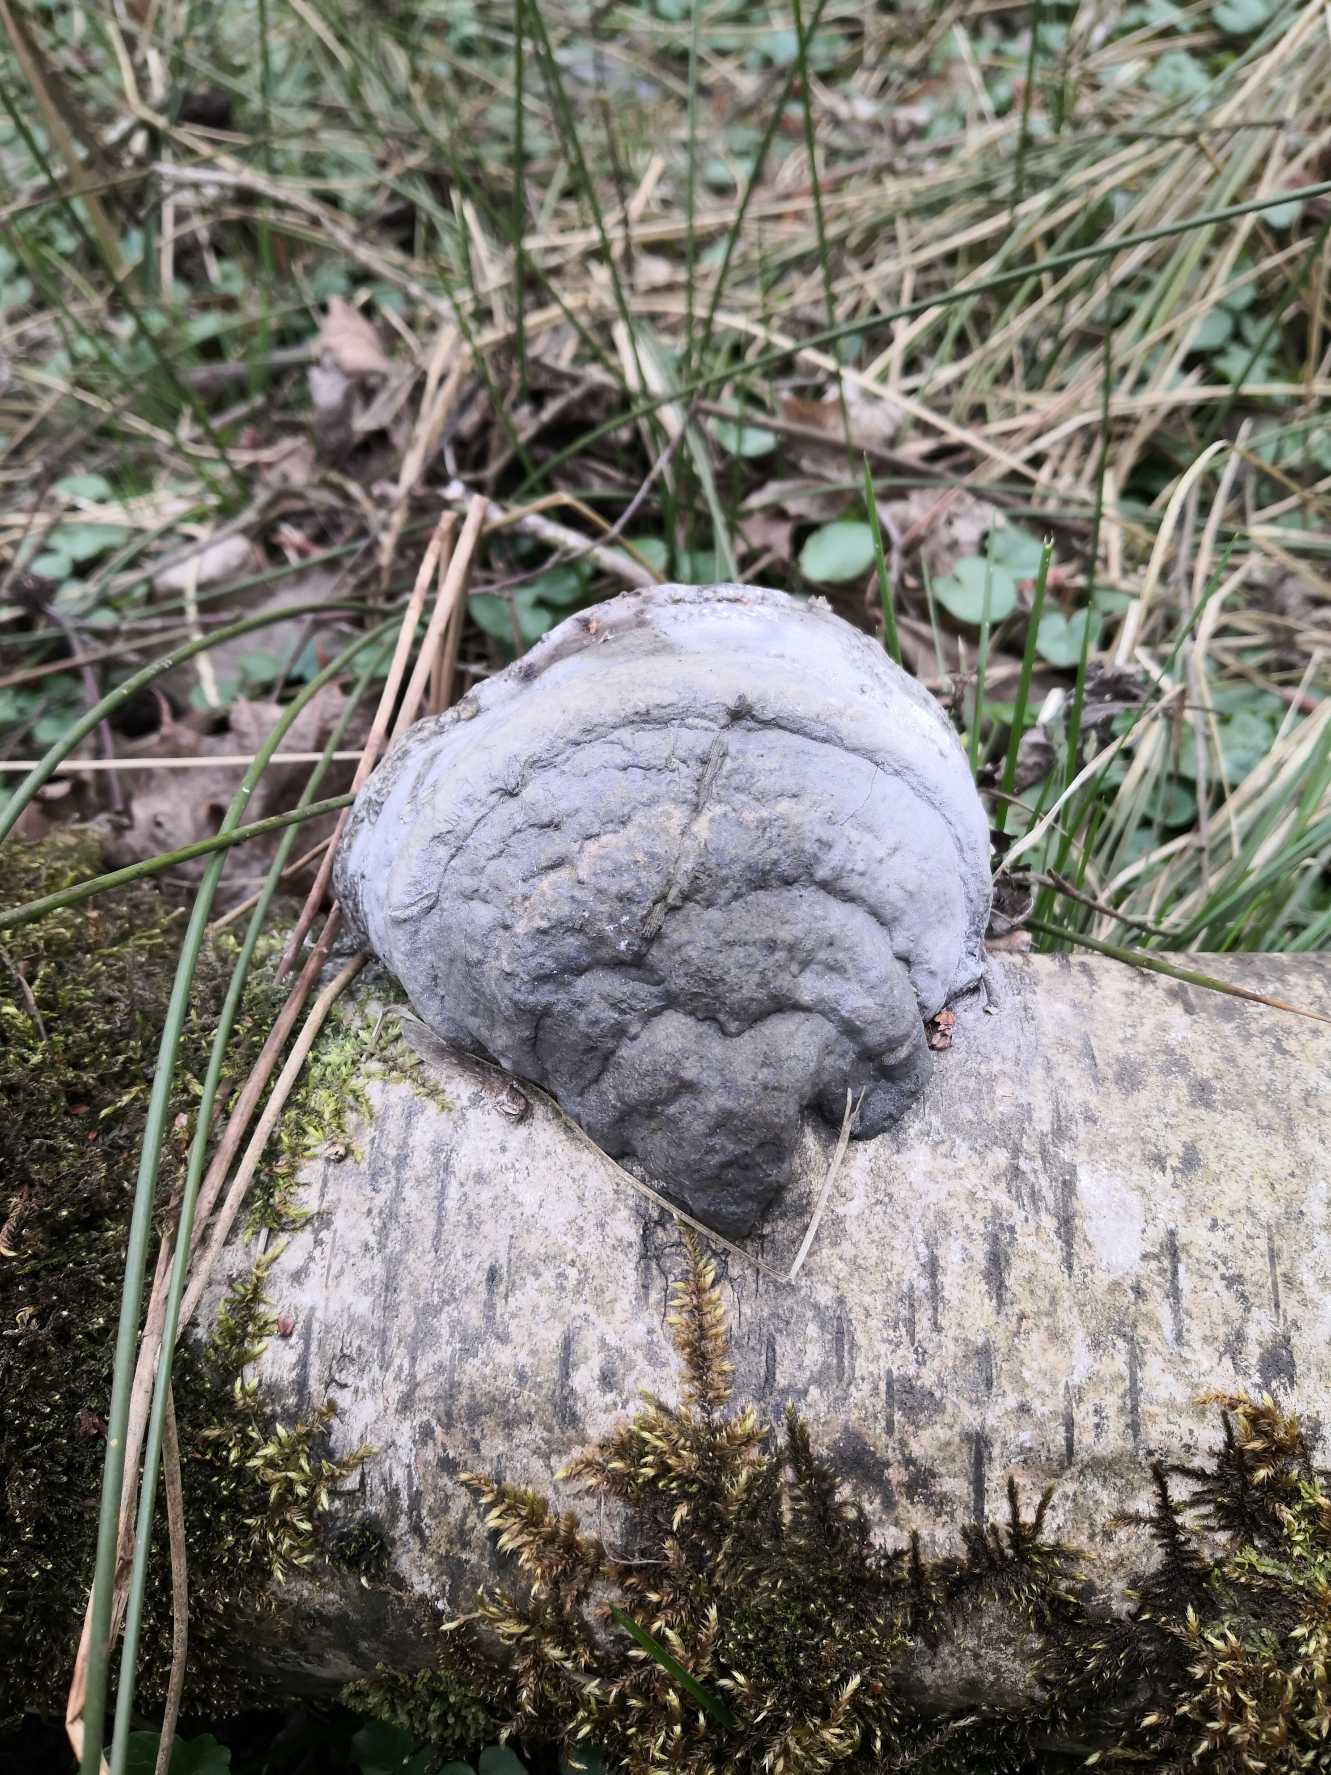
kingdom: Fungi
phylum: Basidiomycota
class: Agaricomycetes
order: Polyporales
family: Polyporaceae
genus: Fomes
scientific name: Fomes fomentarius
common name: Tøndersvamp
